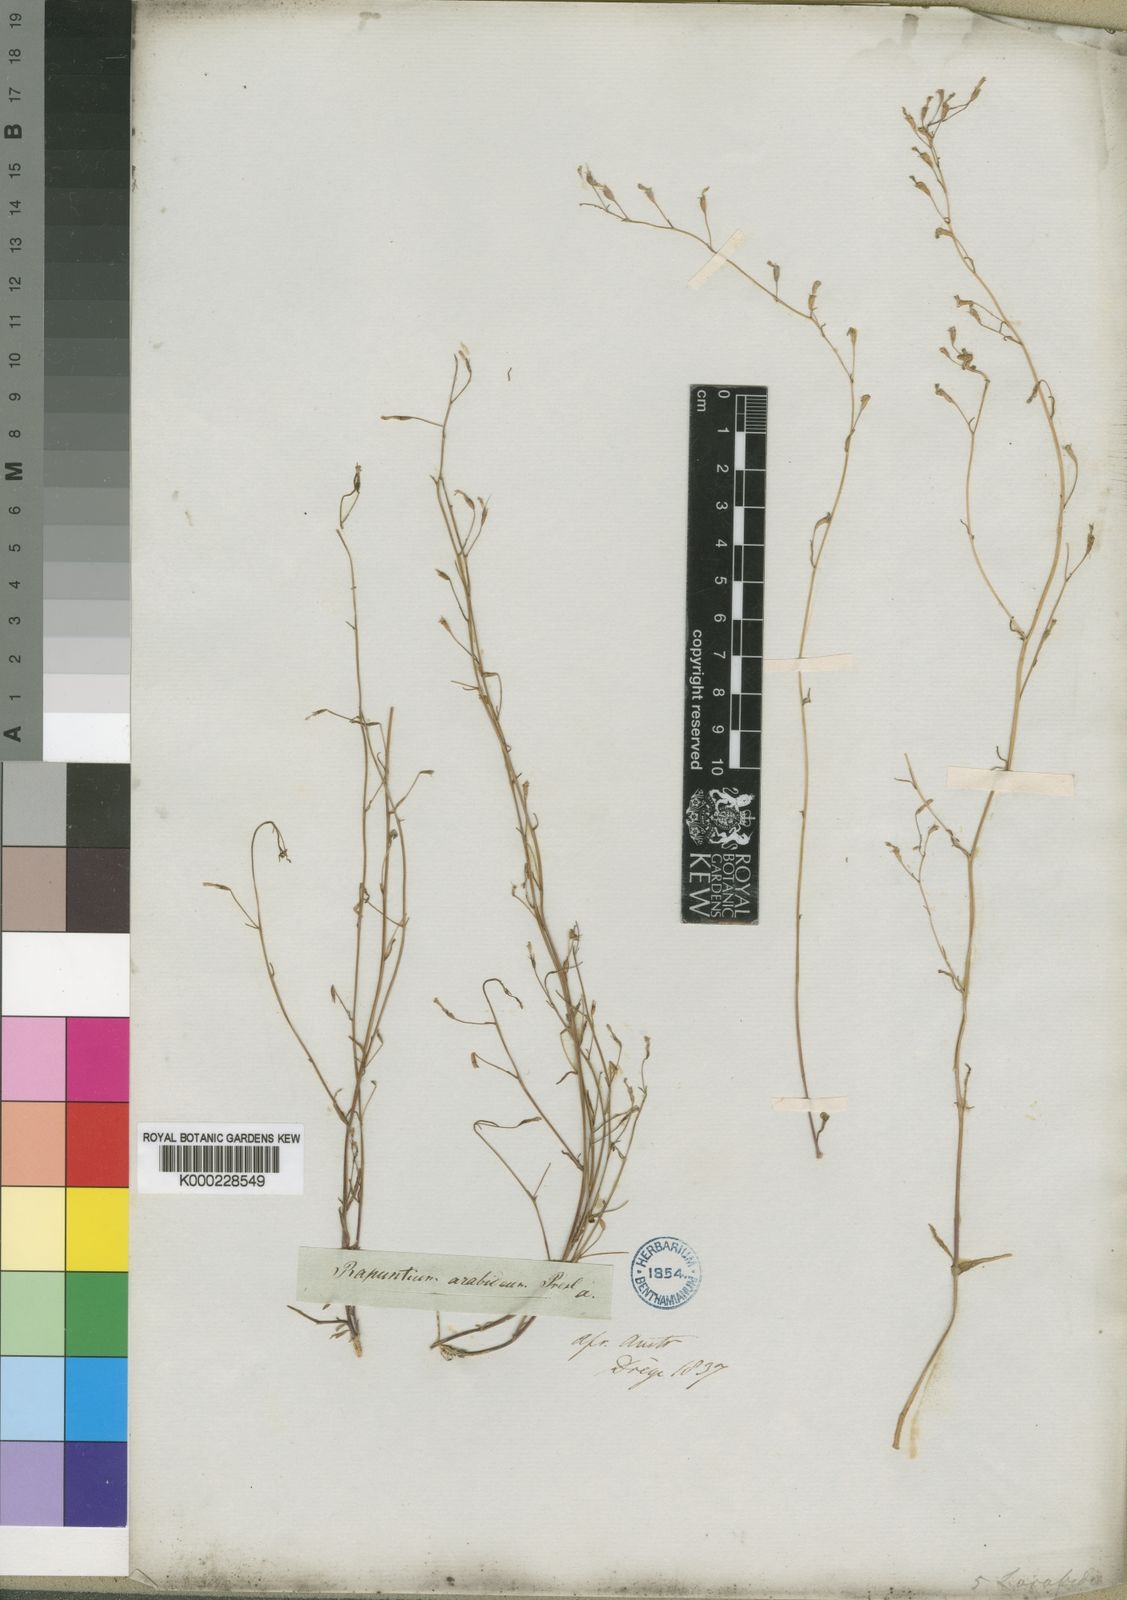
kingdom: Plantae
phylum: Tracheophyta
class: Magnoliopsida
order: Asterales
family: Campanulaceae
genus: Wimmerella
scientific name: Wimmerella
